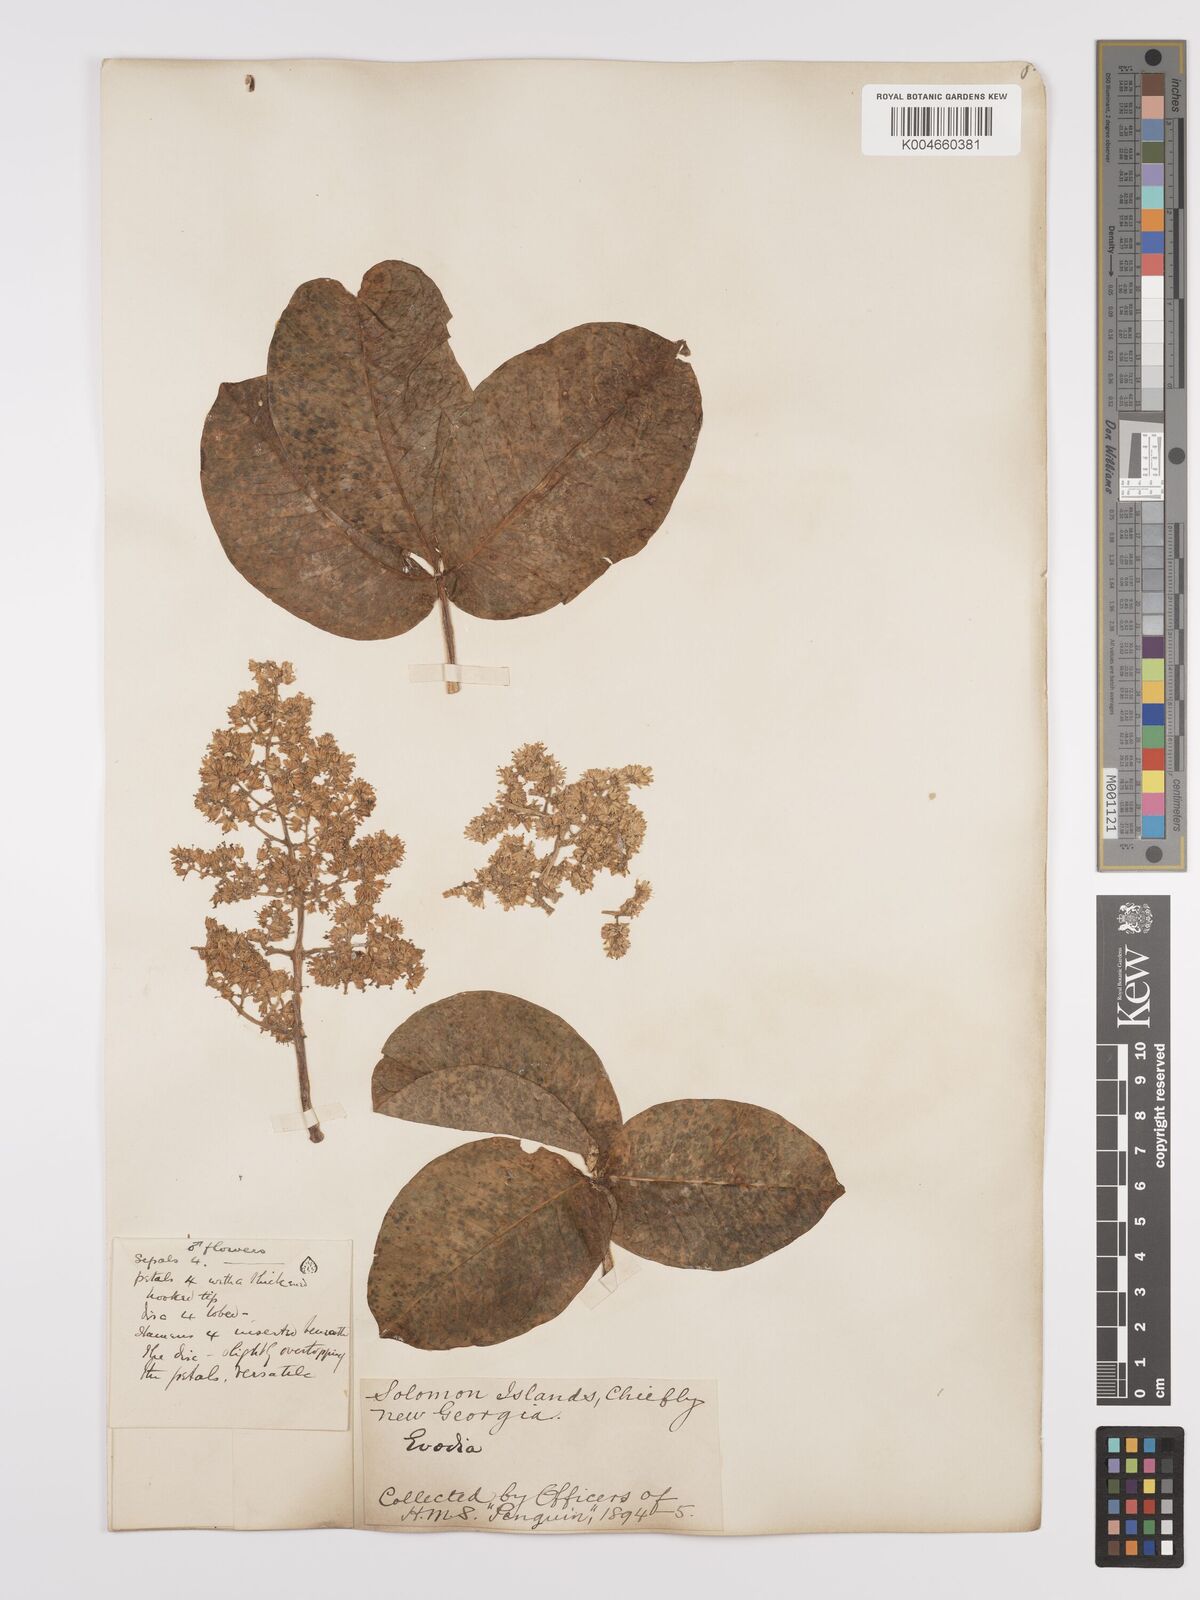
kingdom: Plantae
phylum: Tracheophyta
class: Magnoliopsida
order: Sapindales
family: Rutaceae
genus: Euodia
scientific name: Euodia
